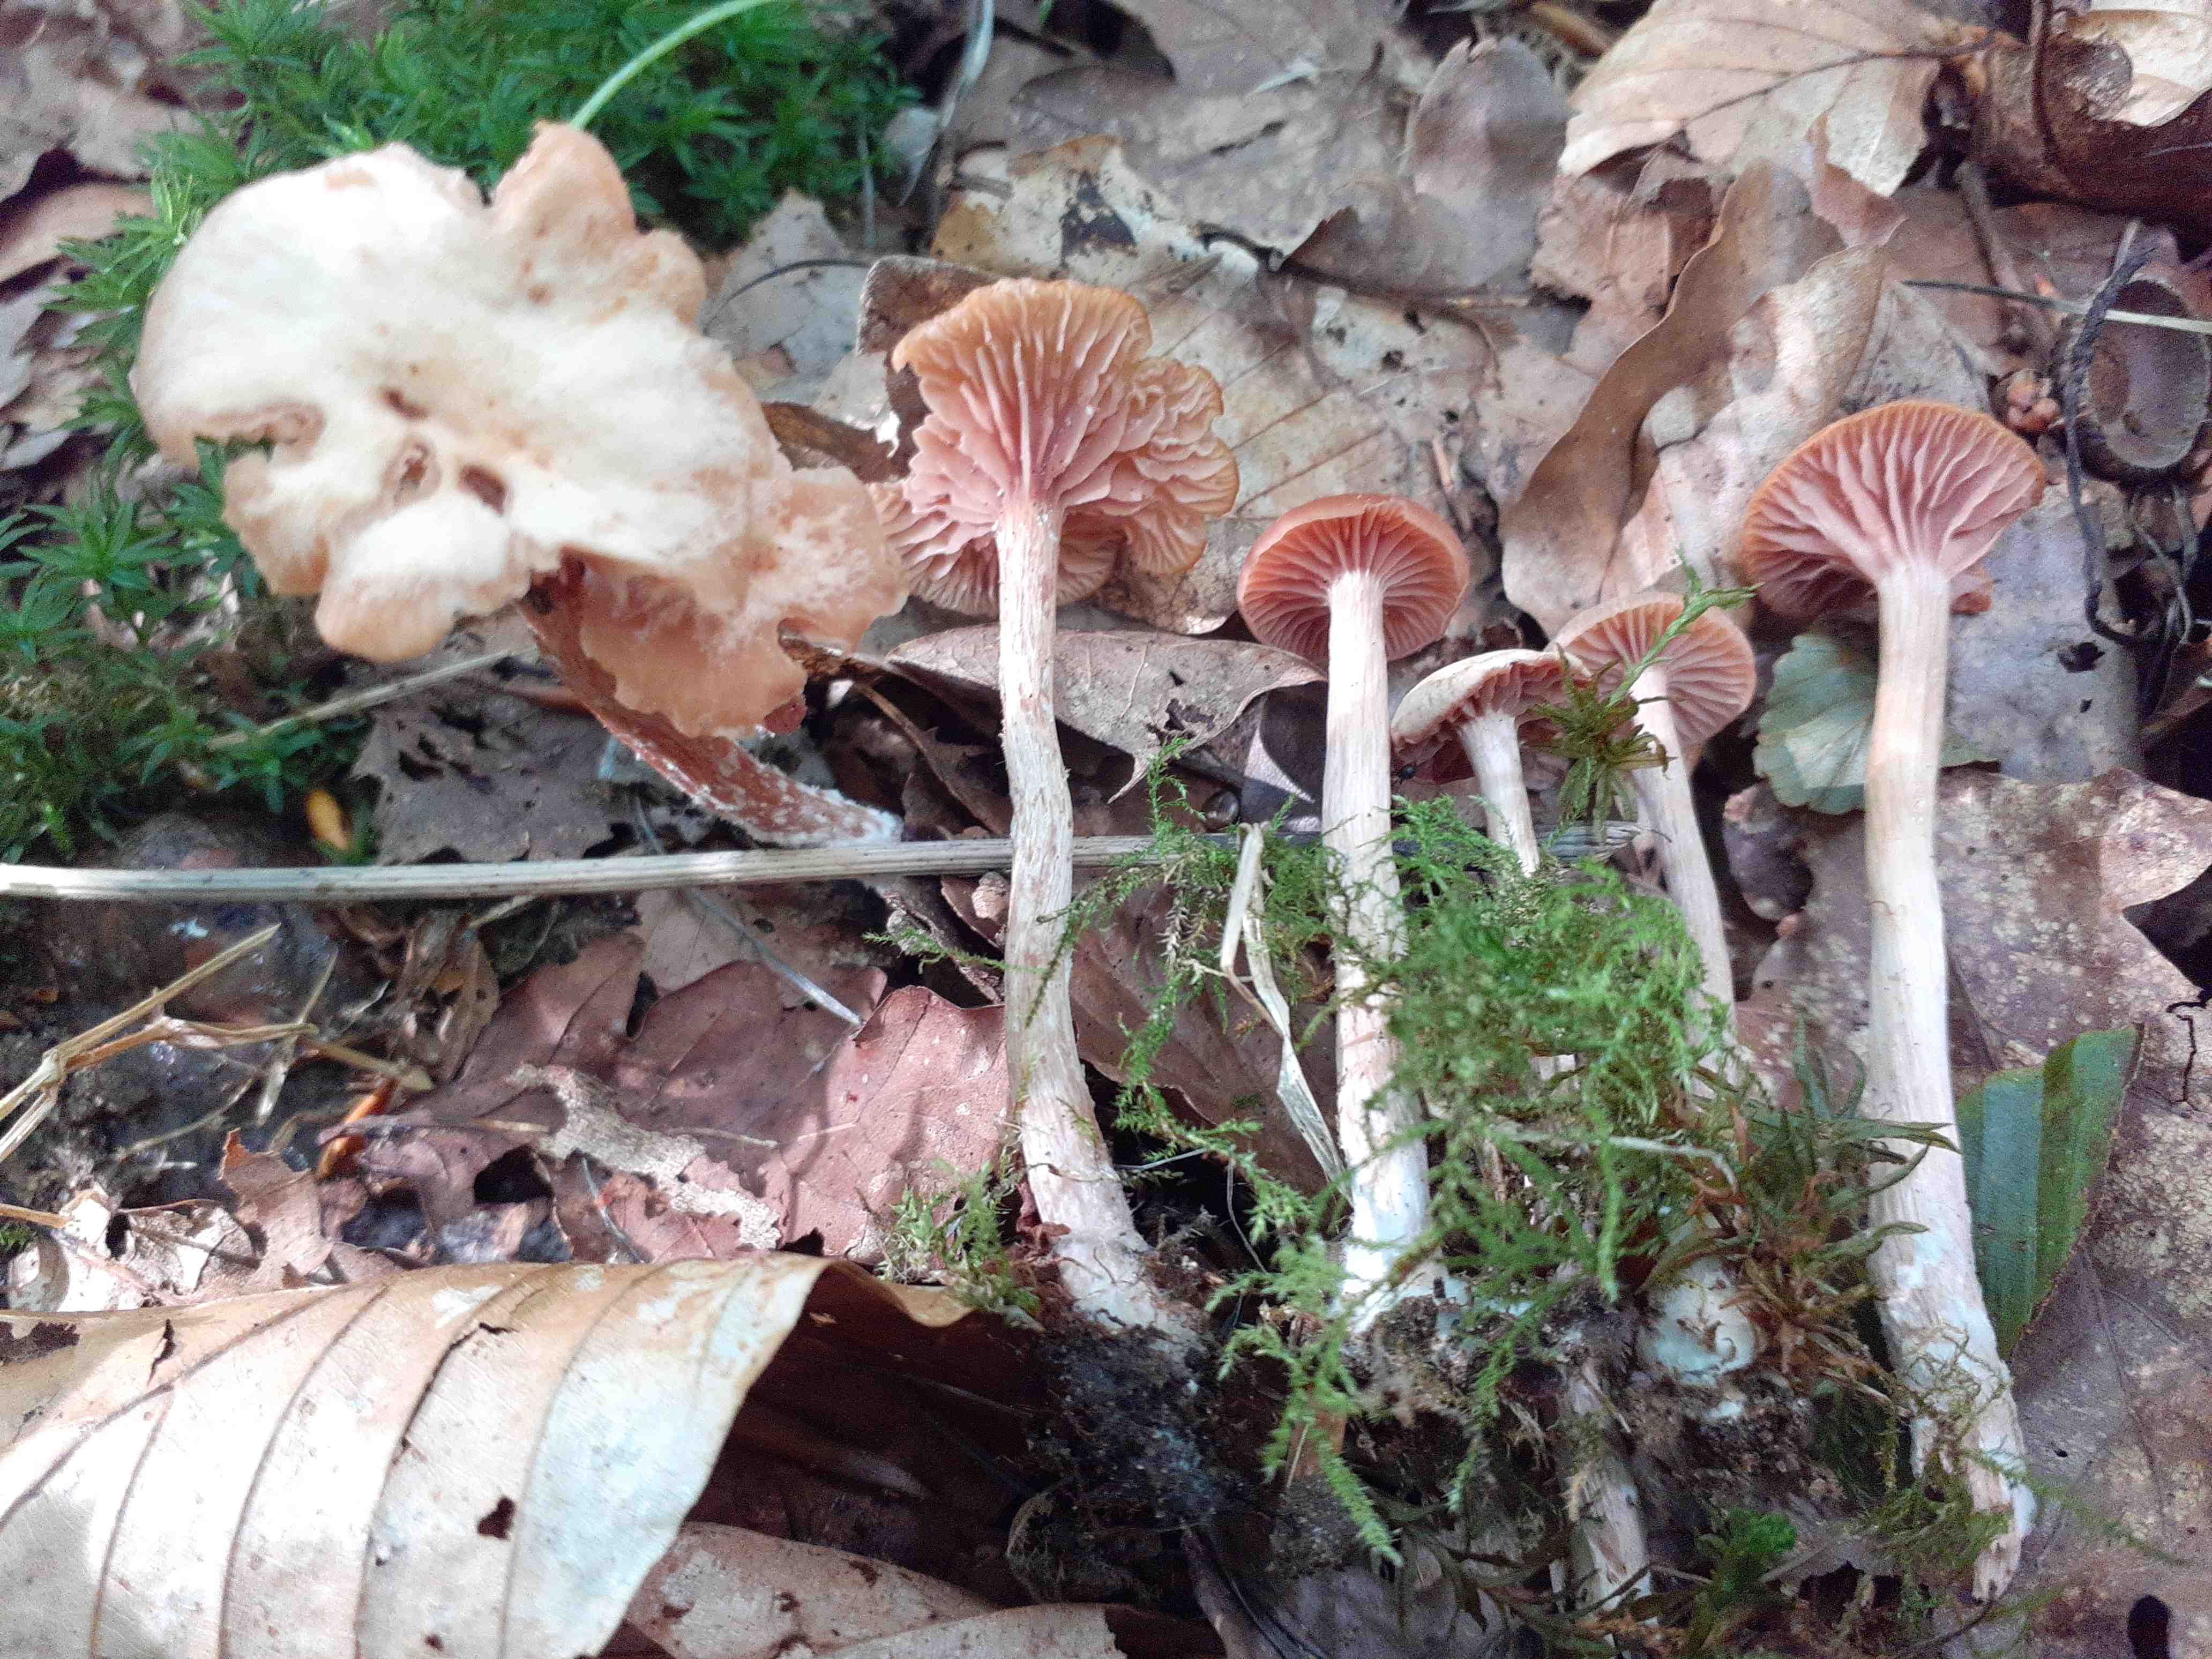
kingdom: Fungi
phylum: Basidiomycota
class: Agaricomycetes
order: Agaricales
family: Hydnangiaceae
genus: Laccaria
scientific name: Laccaria laccata
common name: rød ametysthat
